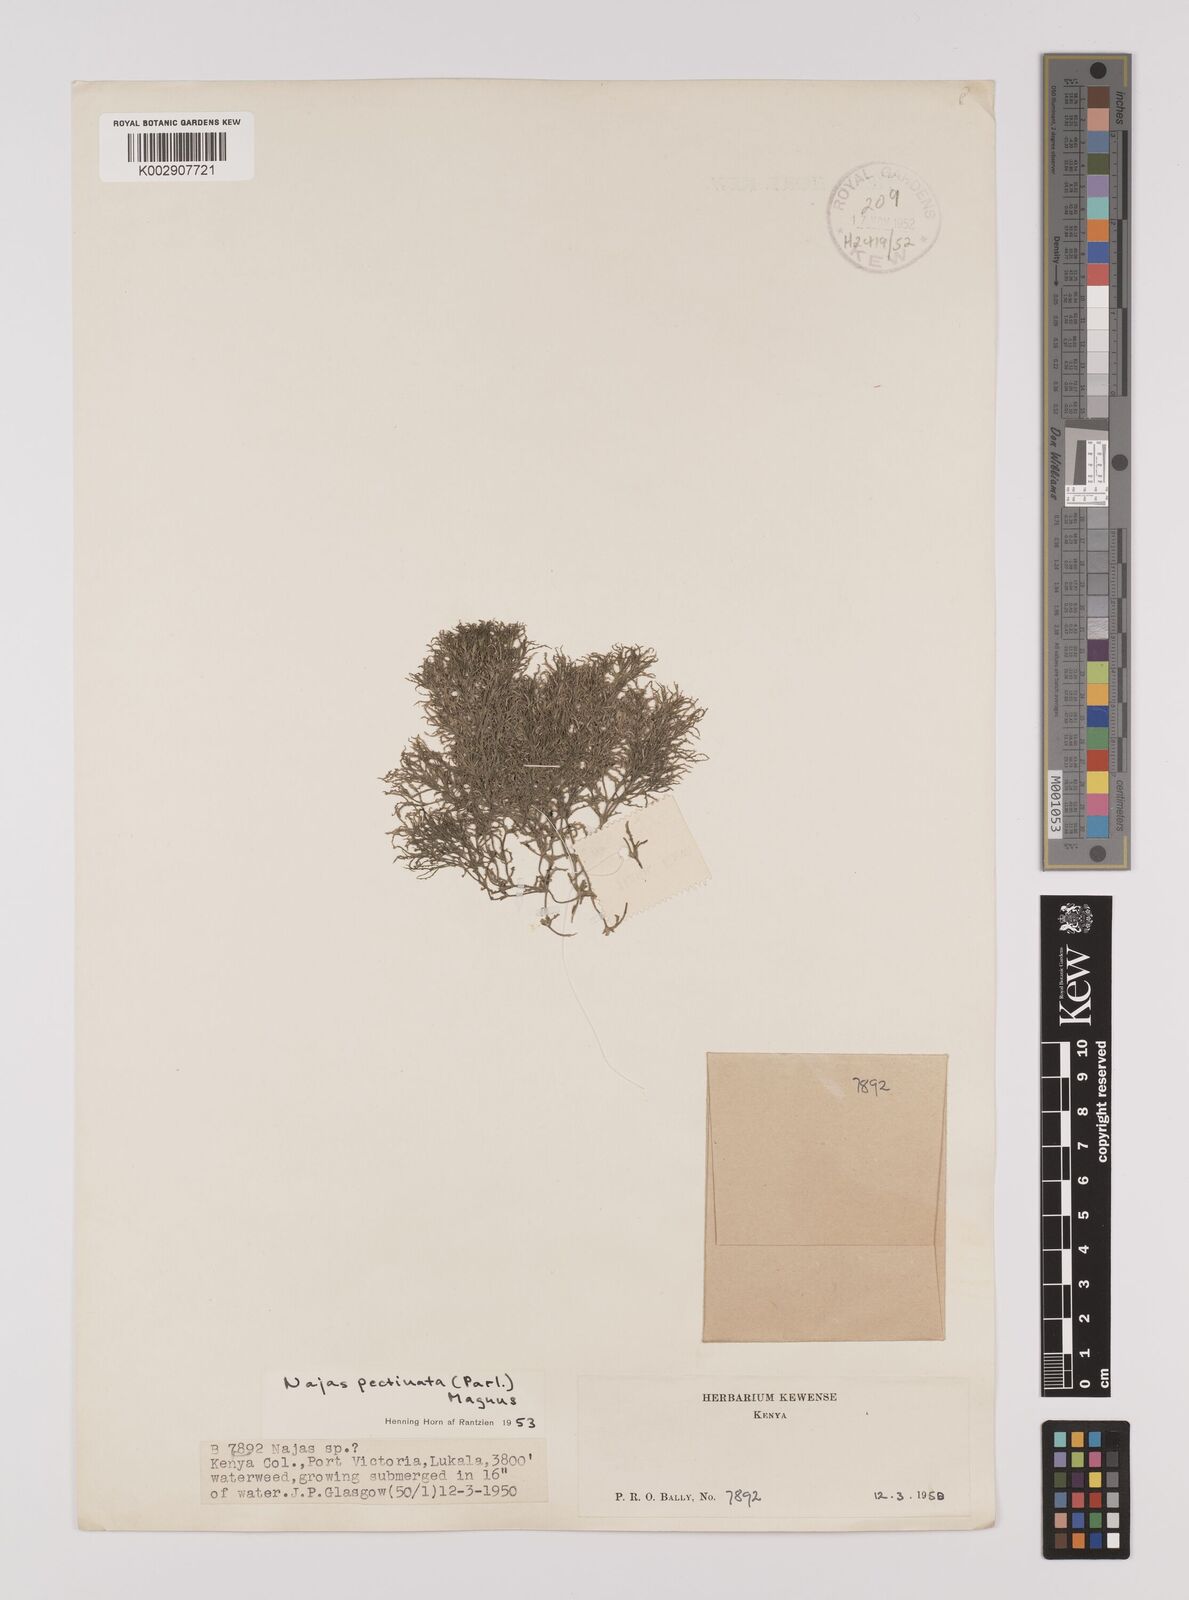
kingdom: Plantae
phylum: Tracheophyta
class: Liliopsida
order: Alismatales
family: Hydrocharitaceae
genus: Najas
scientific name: Najas horrida
